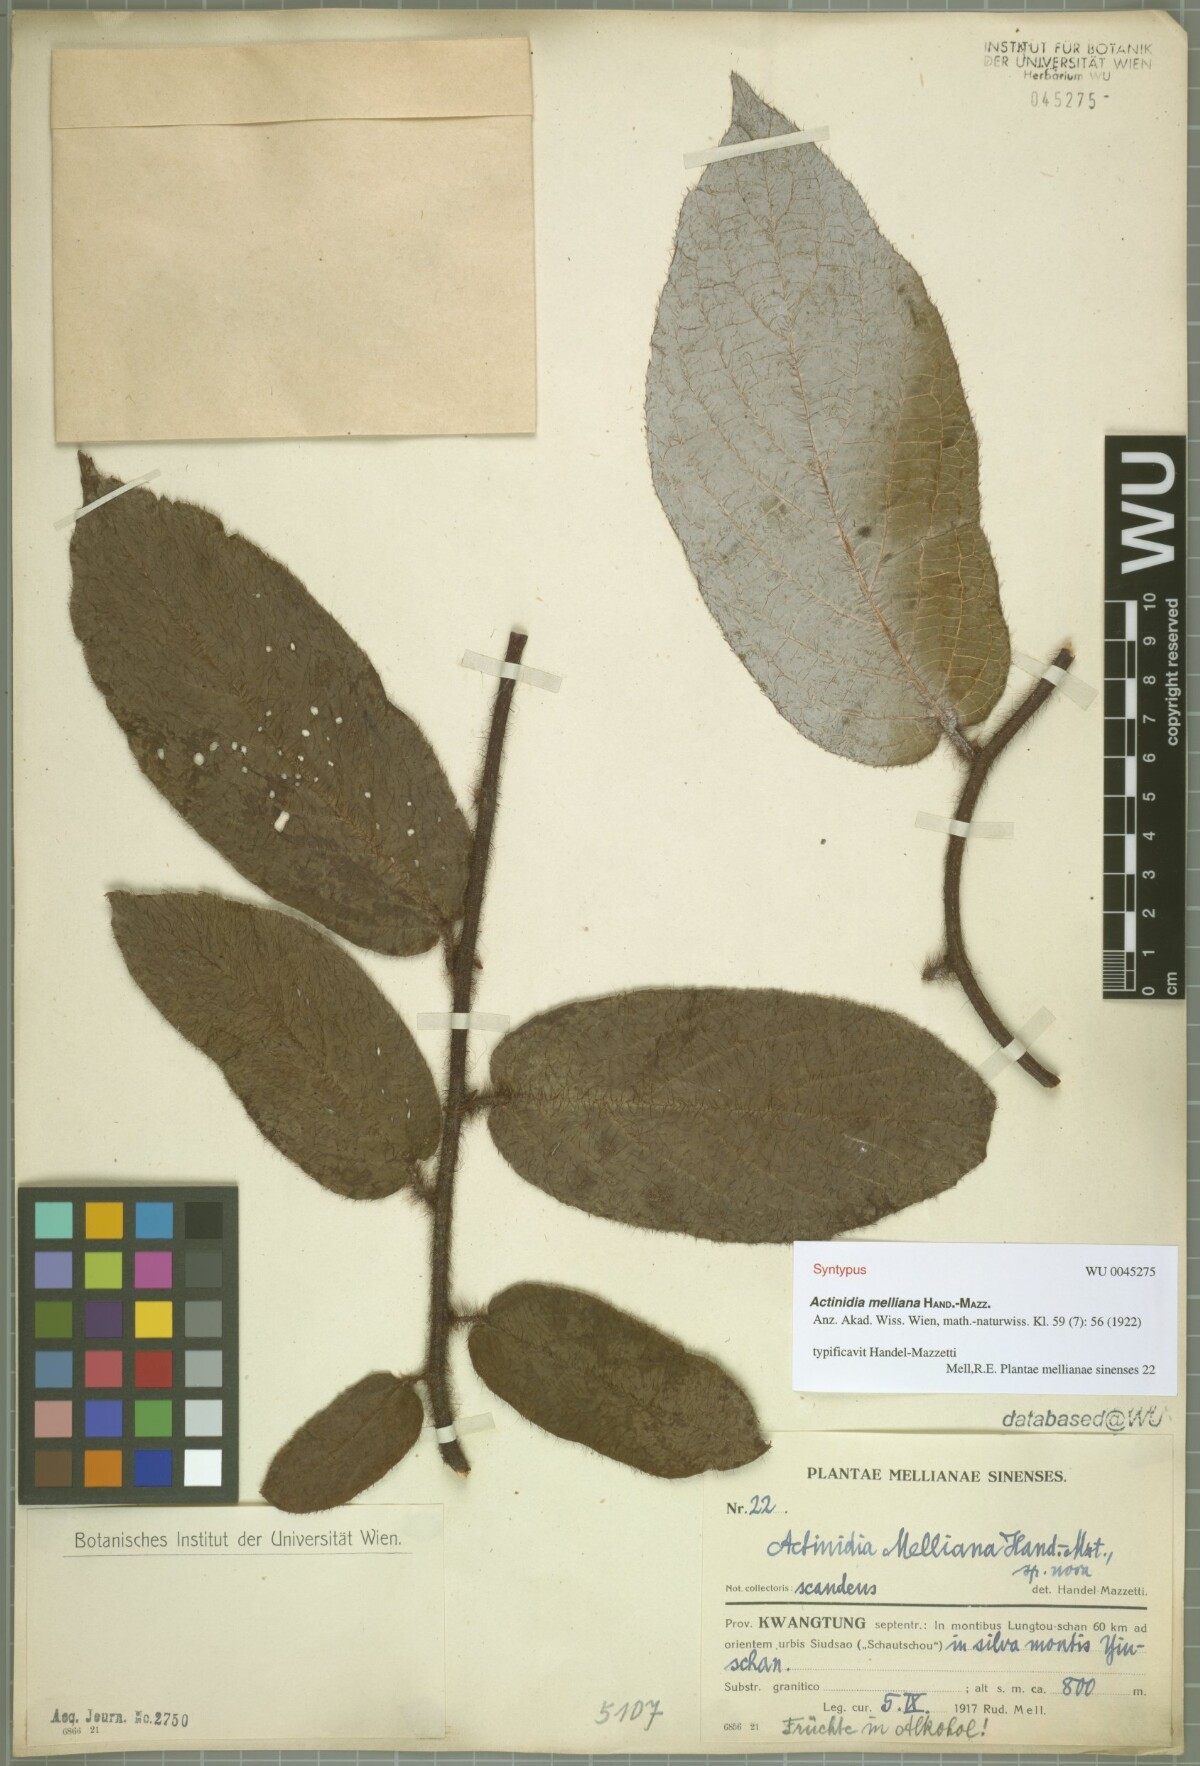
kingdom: Plantae
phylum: Tracheophyta
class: Magnoliopsida
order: Ericales
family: Actinidiaceae
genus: Actinidia
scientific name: Actinidia melliana
